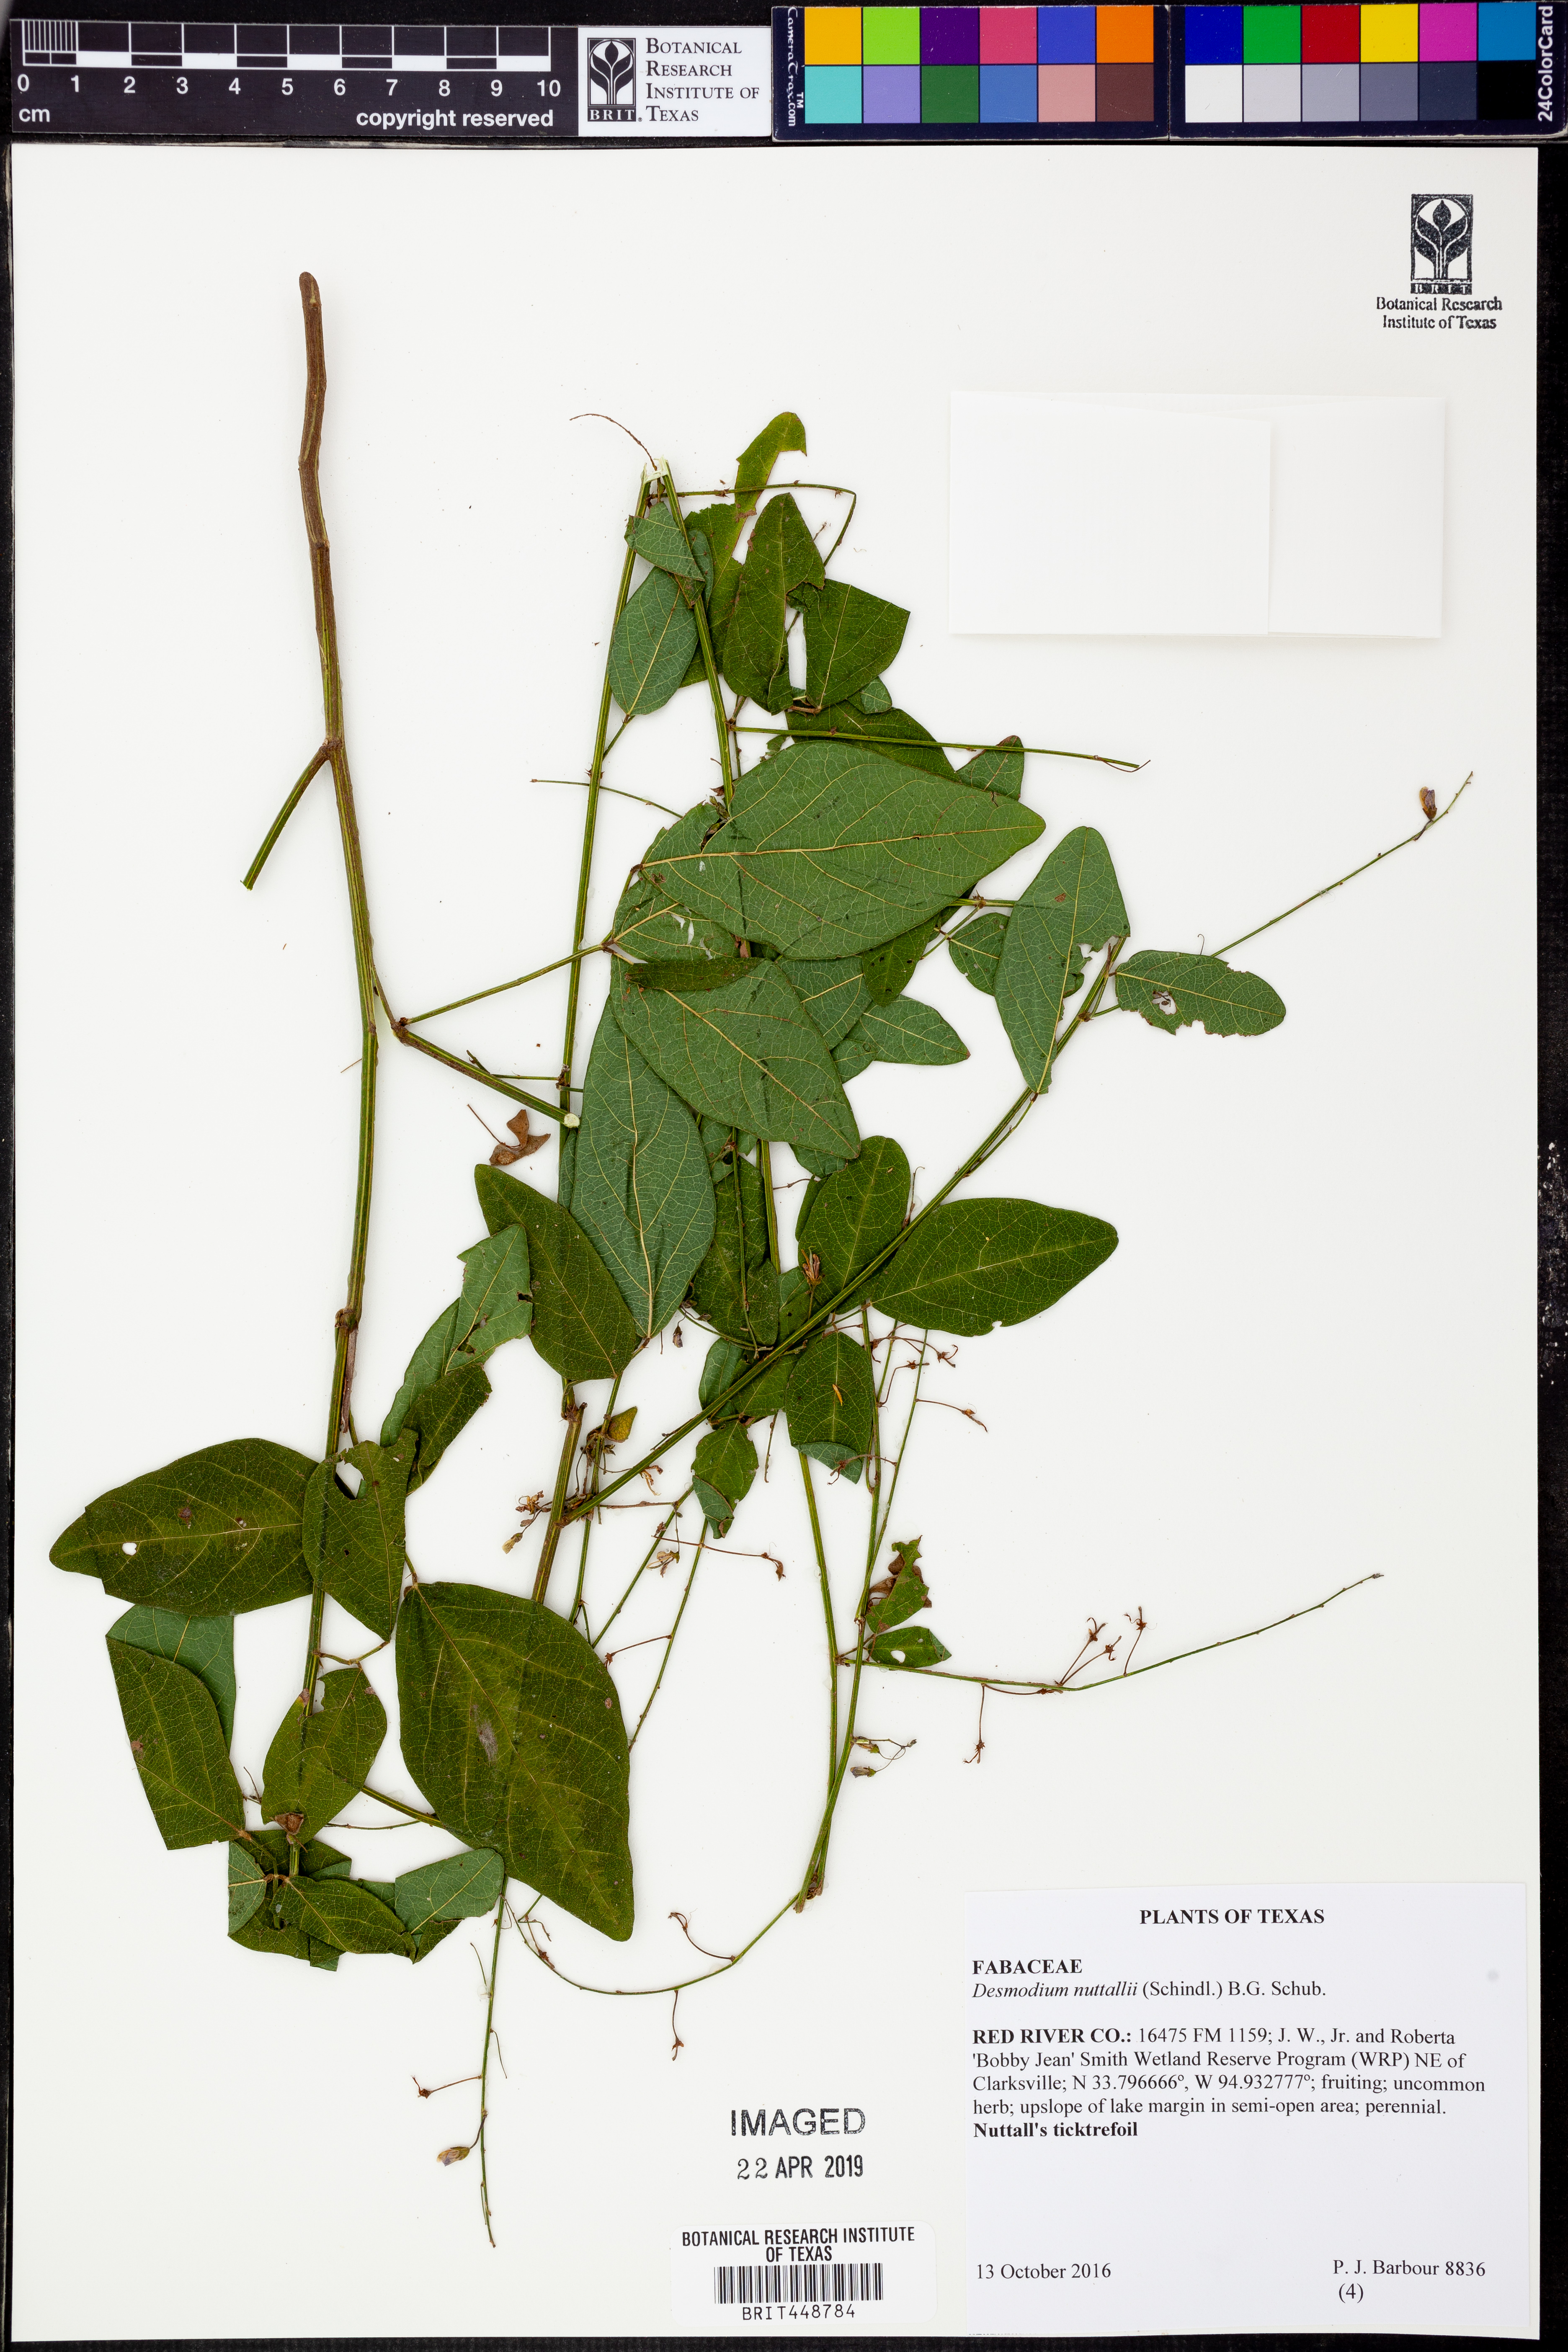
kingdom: Plantae
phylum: Tracheophyta
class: Magnoliopsida
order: Fabales
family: Fabaceae
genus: Desmodium
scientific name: Desmodium nuttallii
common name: Nuttall's tick trefoil
